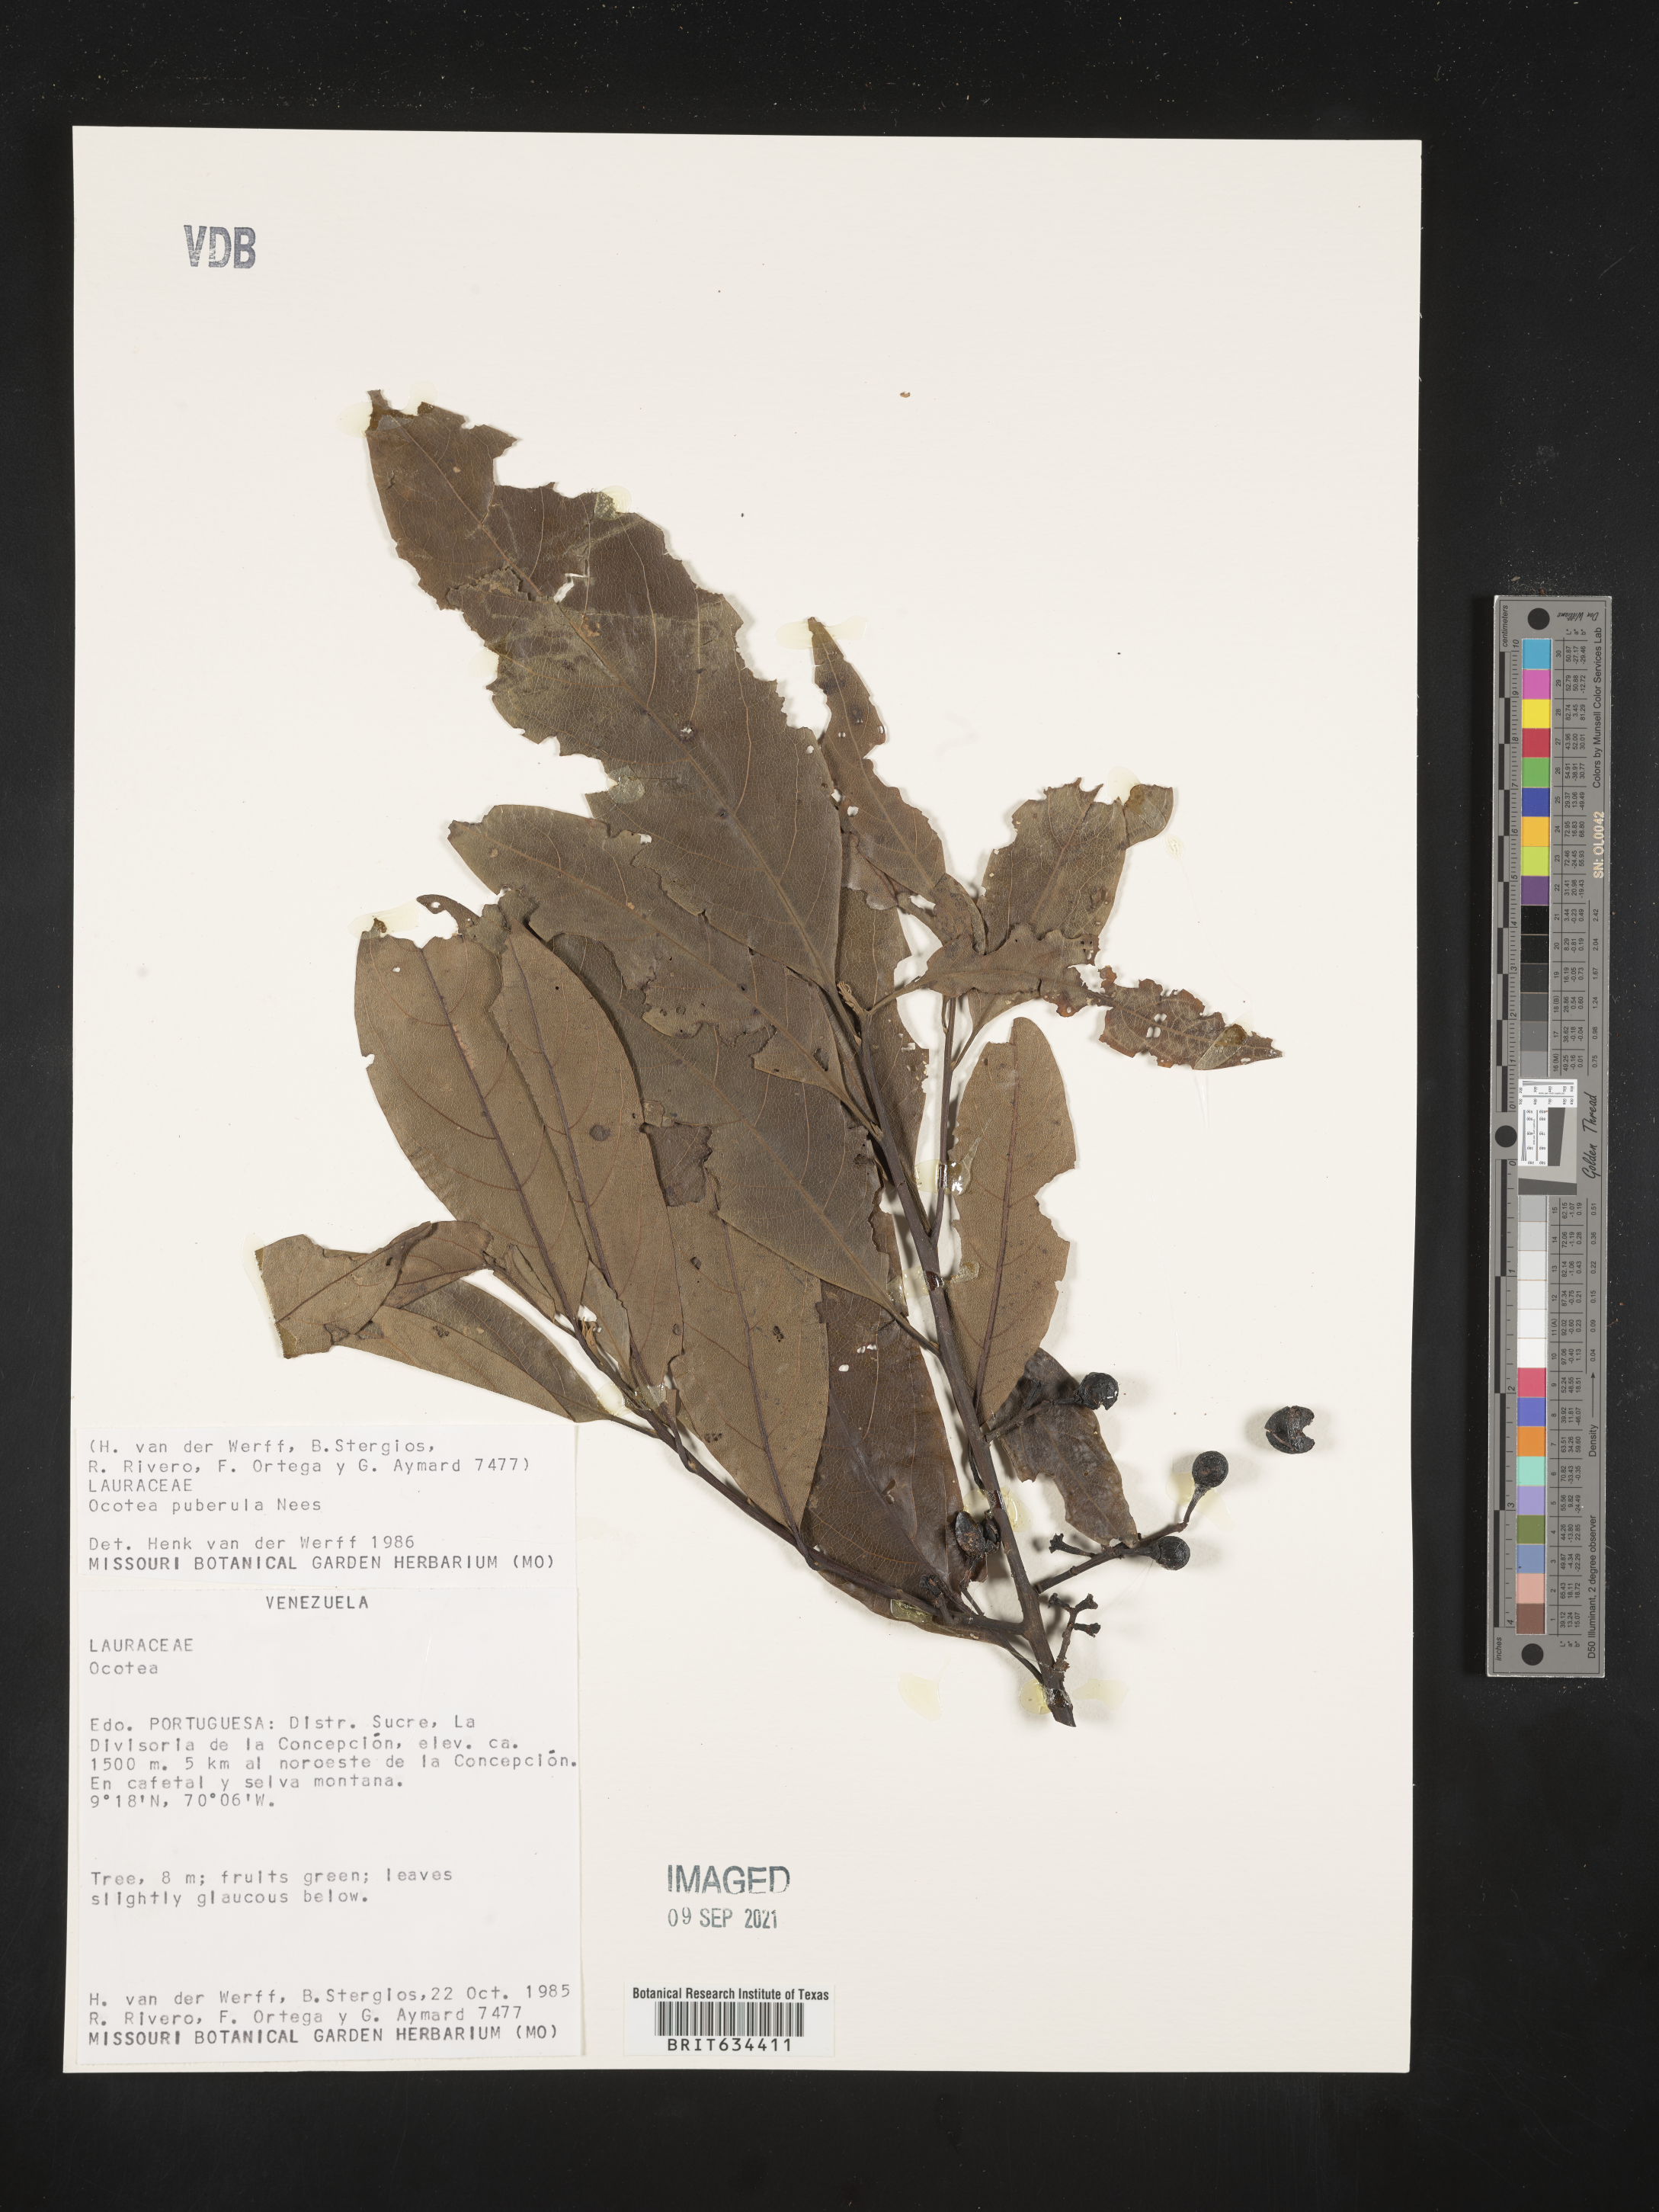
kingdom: Plantae
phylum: Tracheophyta
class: Magnoliopsida
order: Laurales
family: Lauraceae
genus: Ocotea
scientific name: Ocotea
